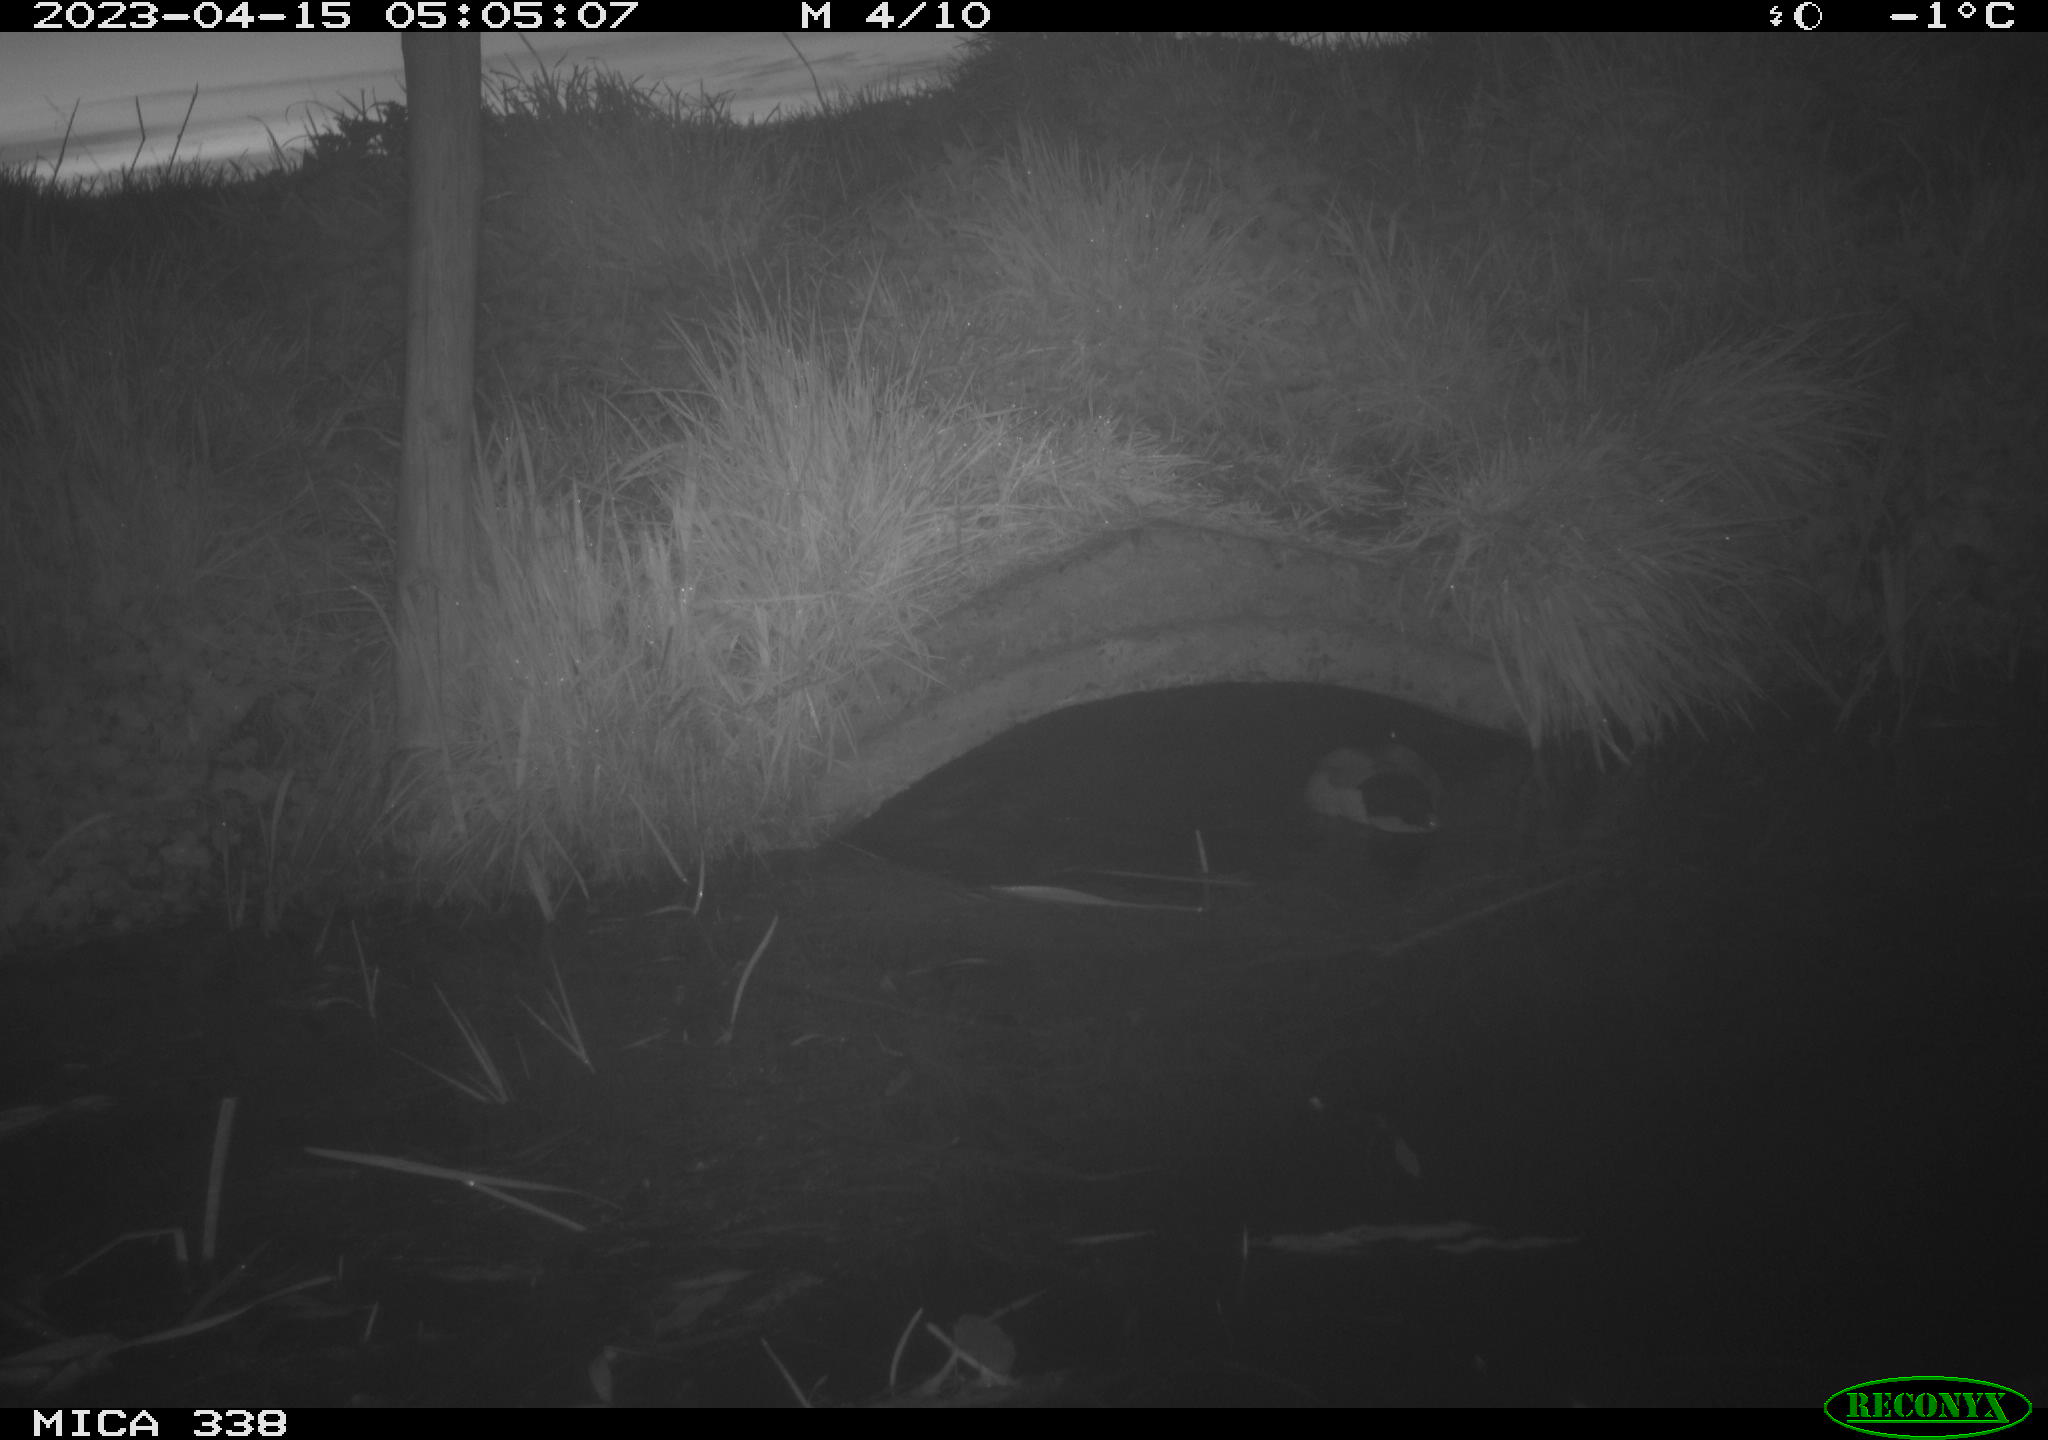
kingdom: Animalia
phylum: Chordata
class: Aves
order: Anseriformes
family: Anatidae
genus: Anas
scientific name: Anas
